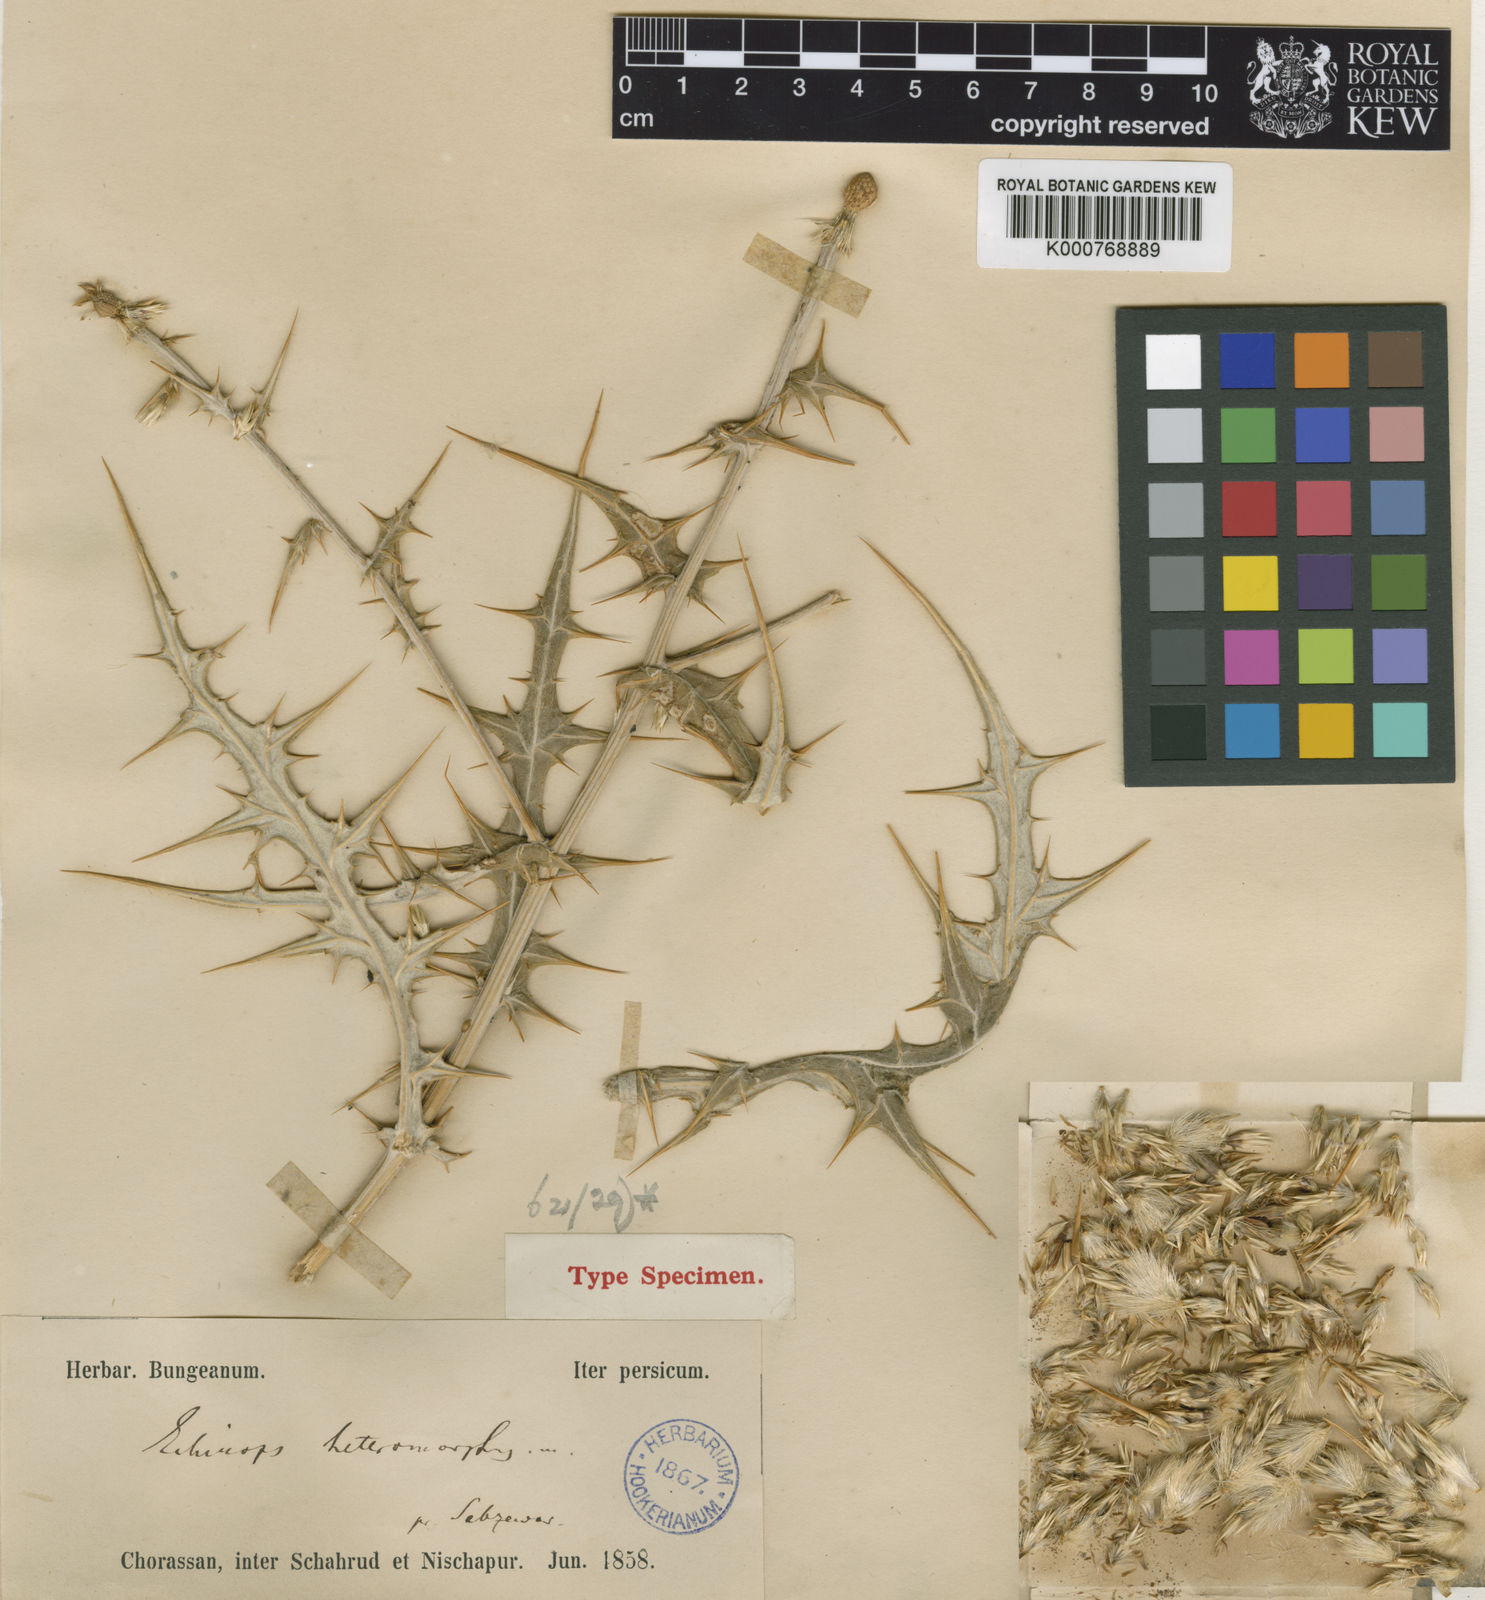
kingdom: Plantae
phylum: Tracheophyta
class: Magnoliopsida
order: Asterales
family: Asteraceae
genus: Echinops
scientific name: Echinops hebelepis
